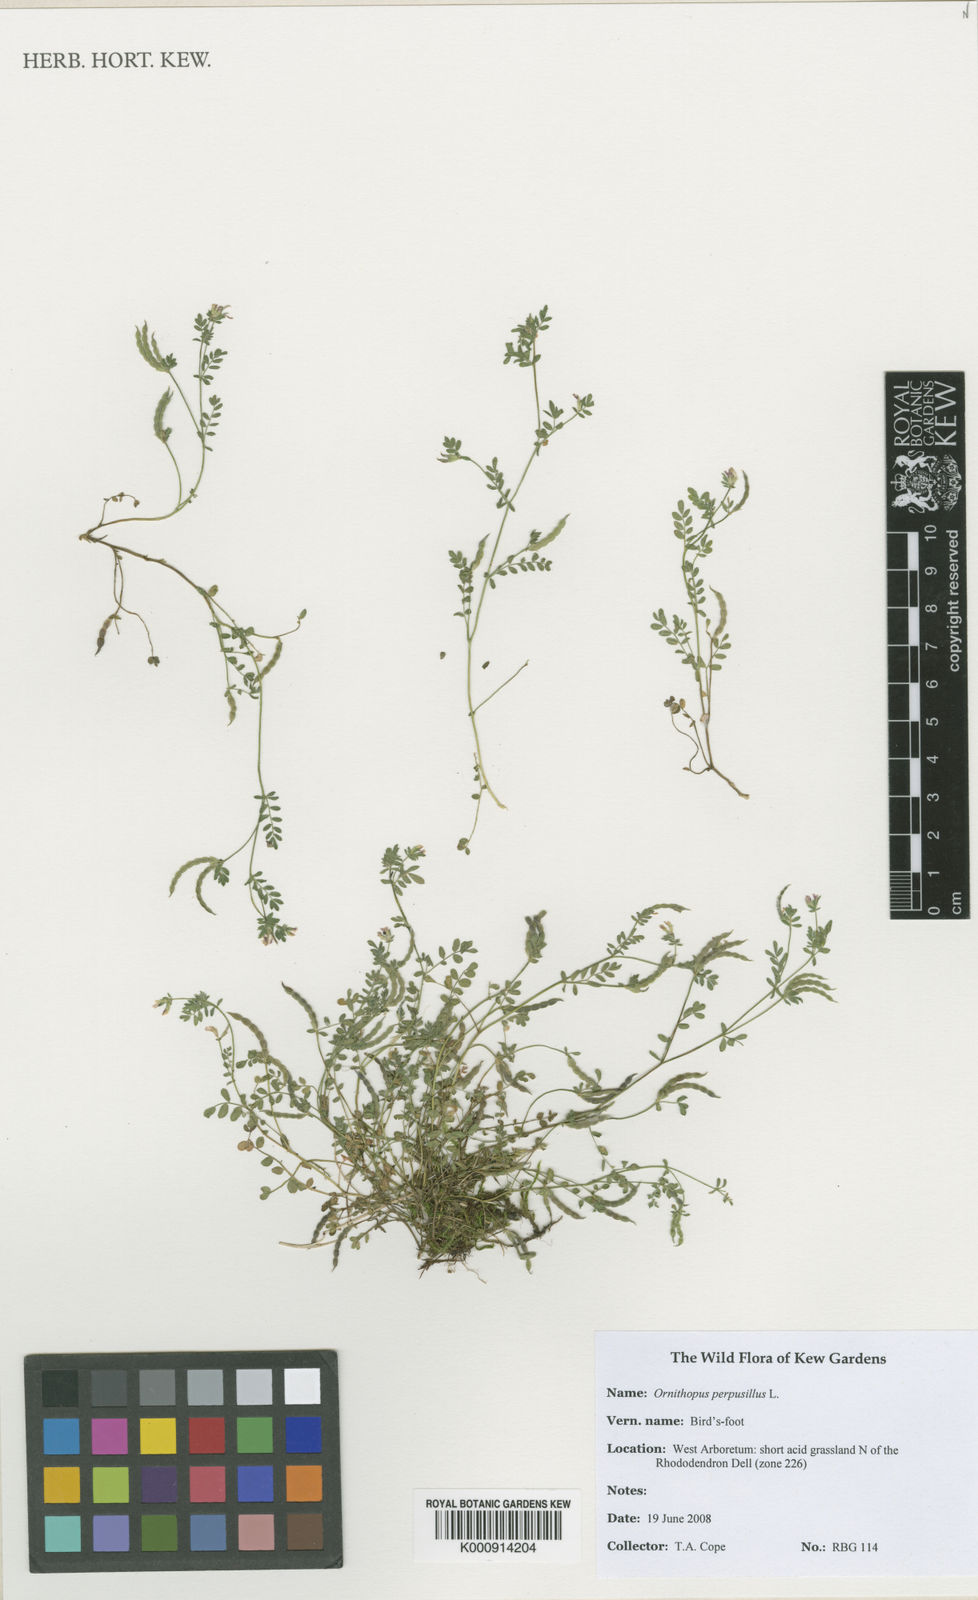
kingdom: Plantae
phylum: Tracheophyta
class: Magnoliopsida
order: Fabales
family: Fabaceae
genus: Ornithopus
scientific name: Ornithopus perpusillus
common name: Bird's-foot
